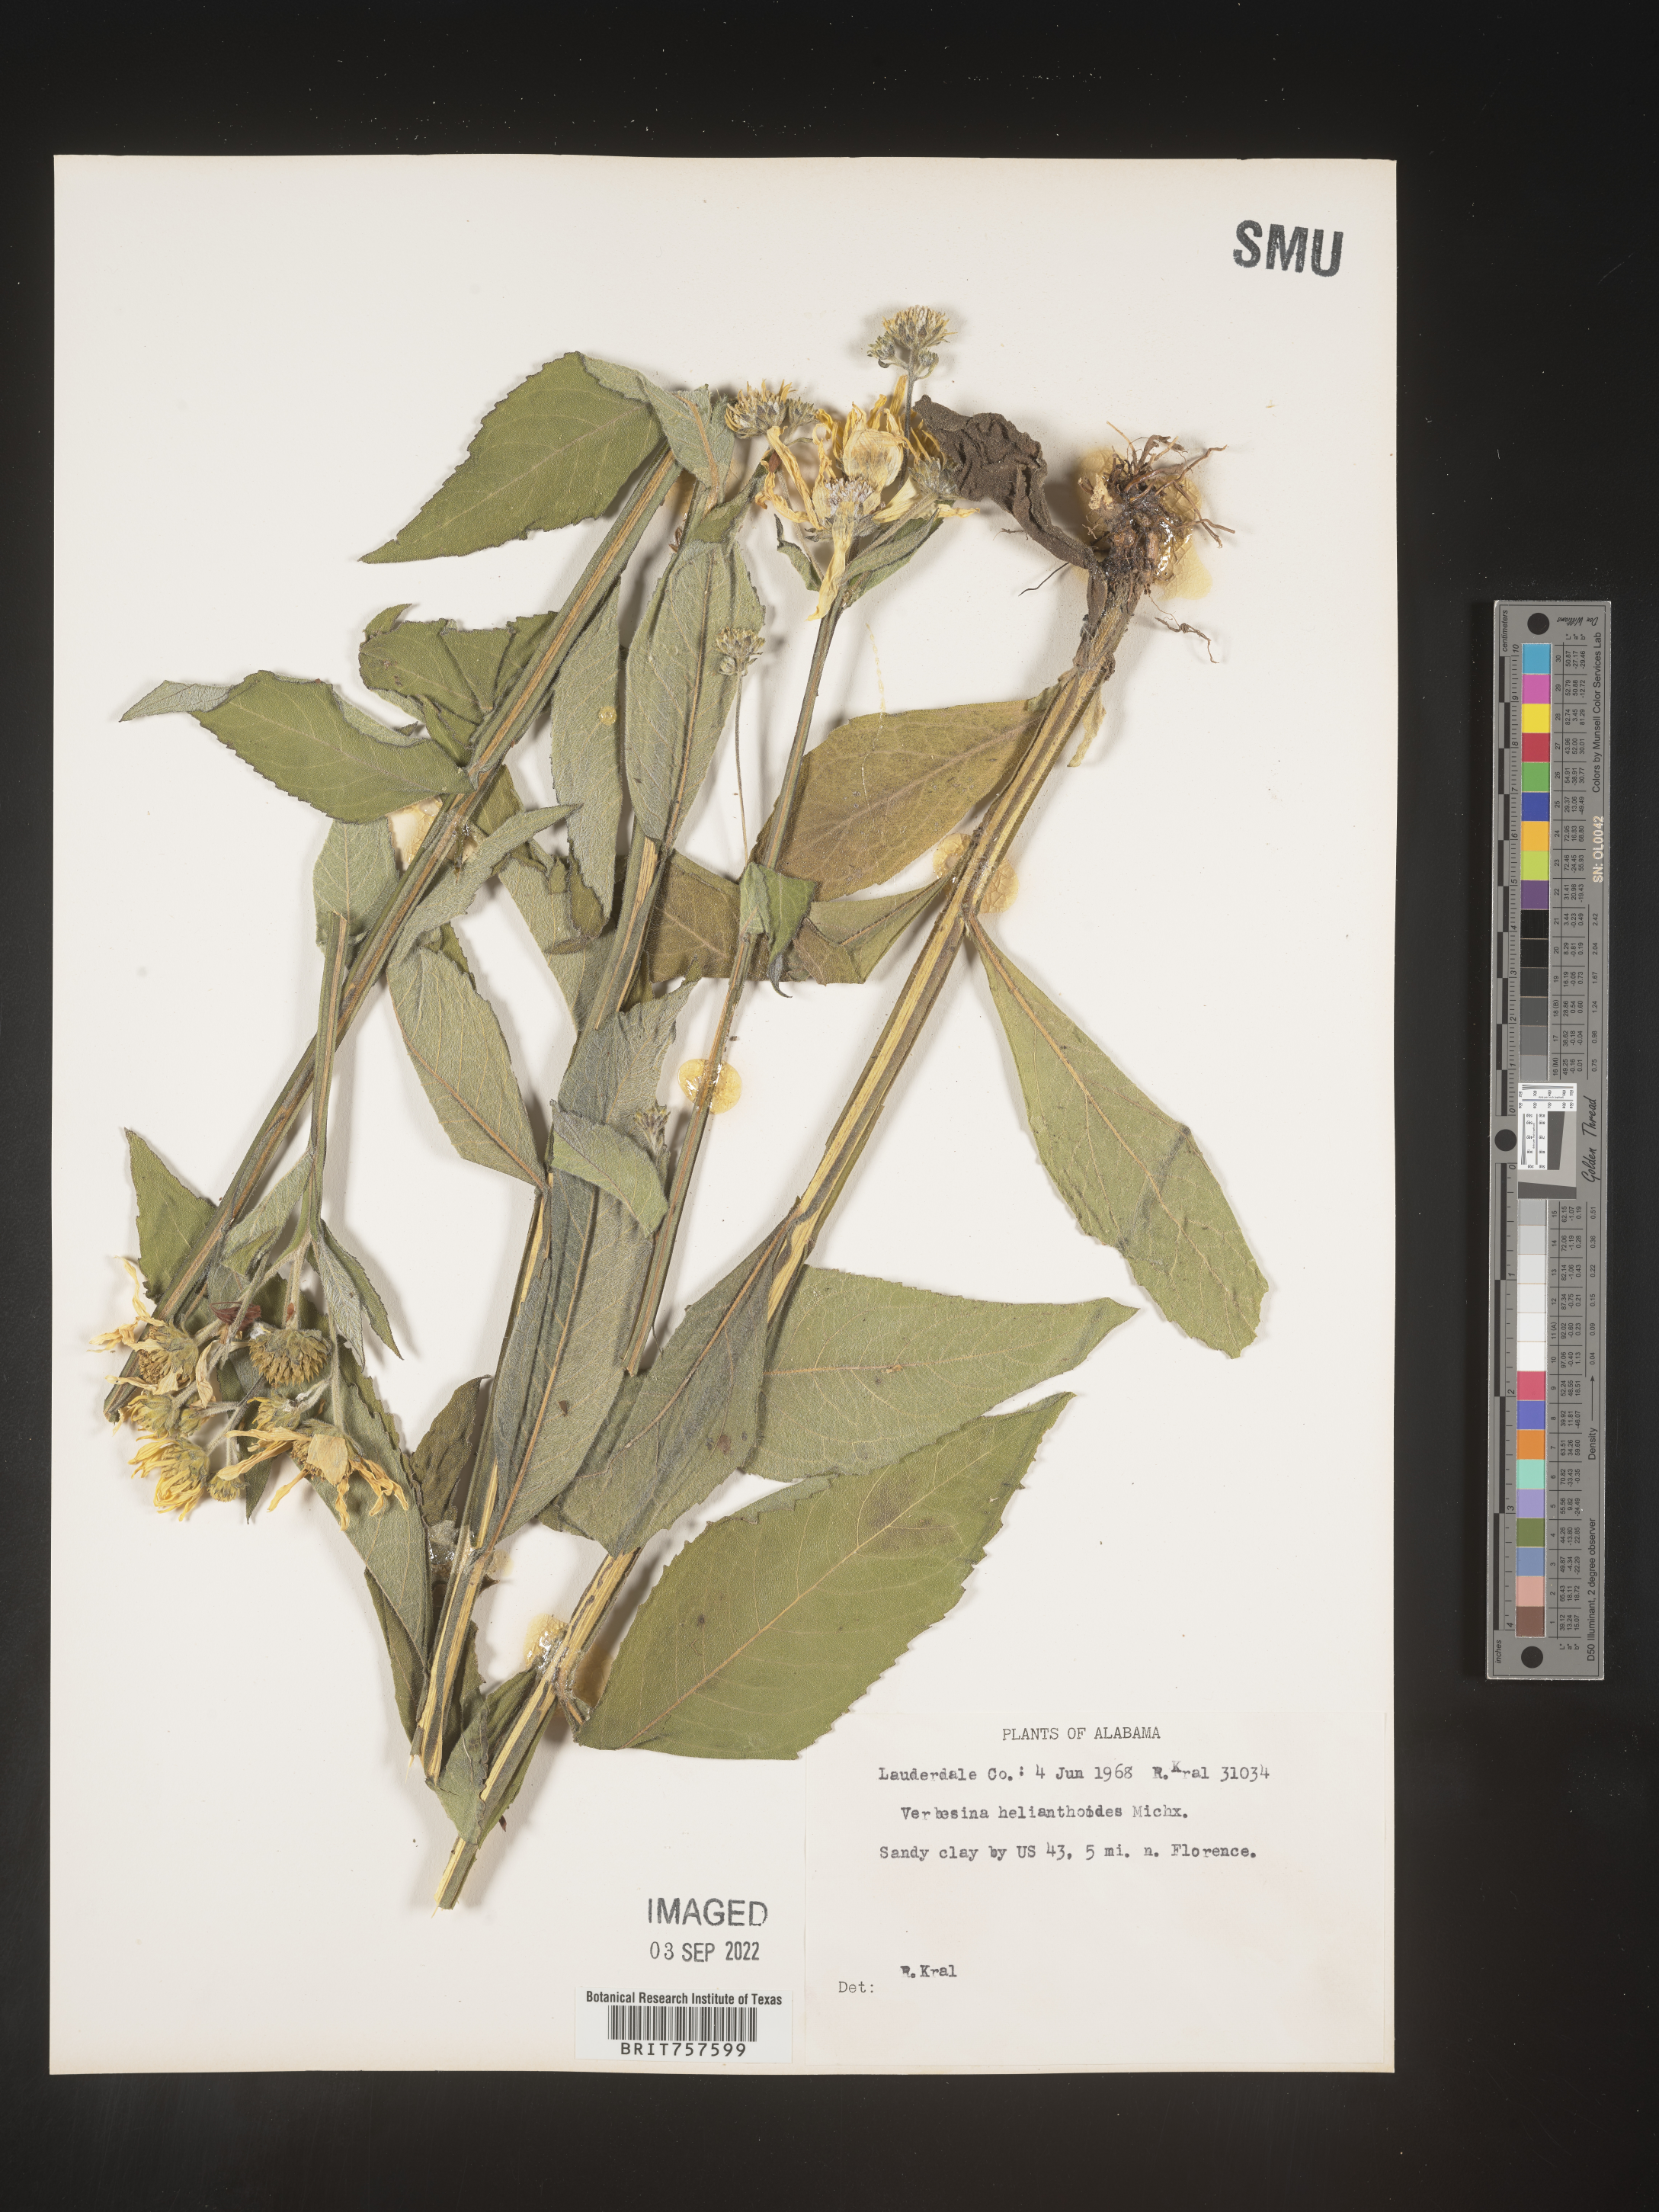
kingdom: Plantae
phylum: Tracheophyta
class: Magnoliopsida
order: Asterales
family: Asteraceae
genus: Verbesina
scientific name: Verbesina helianthoides
